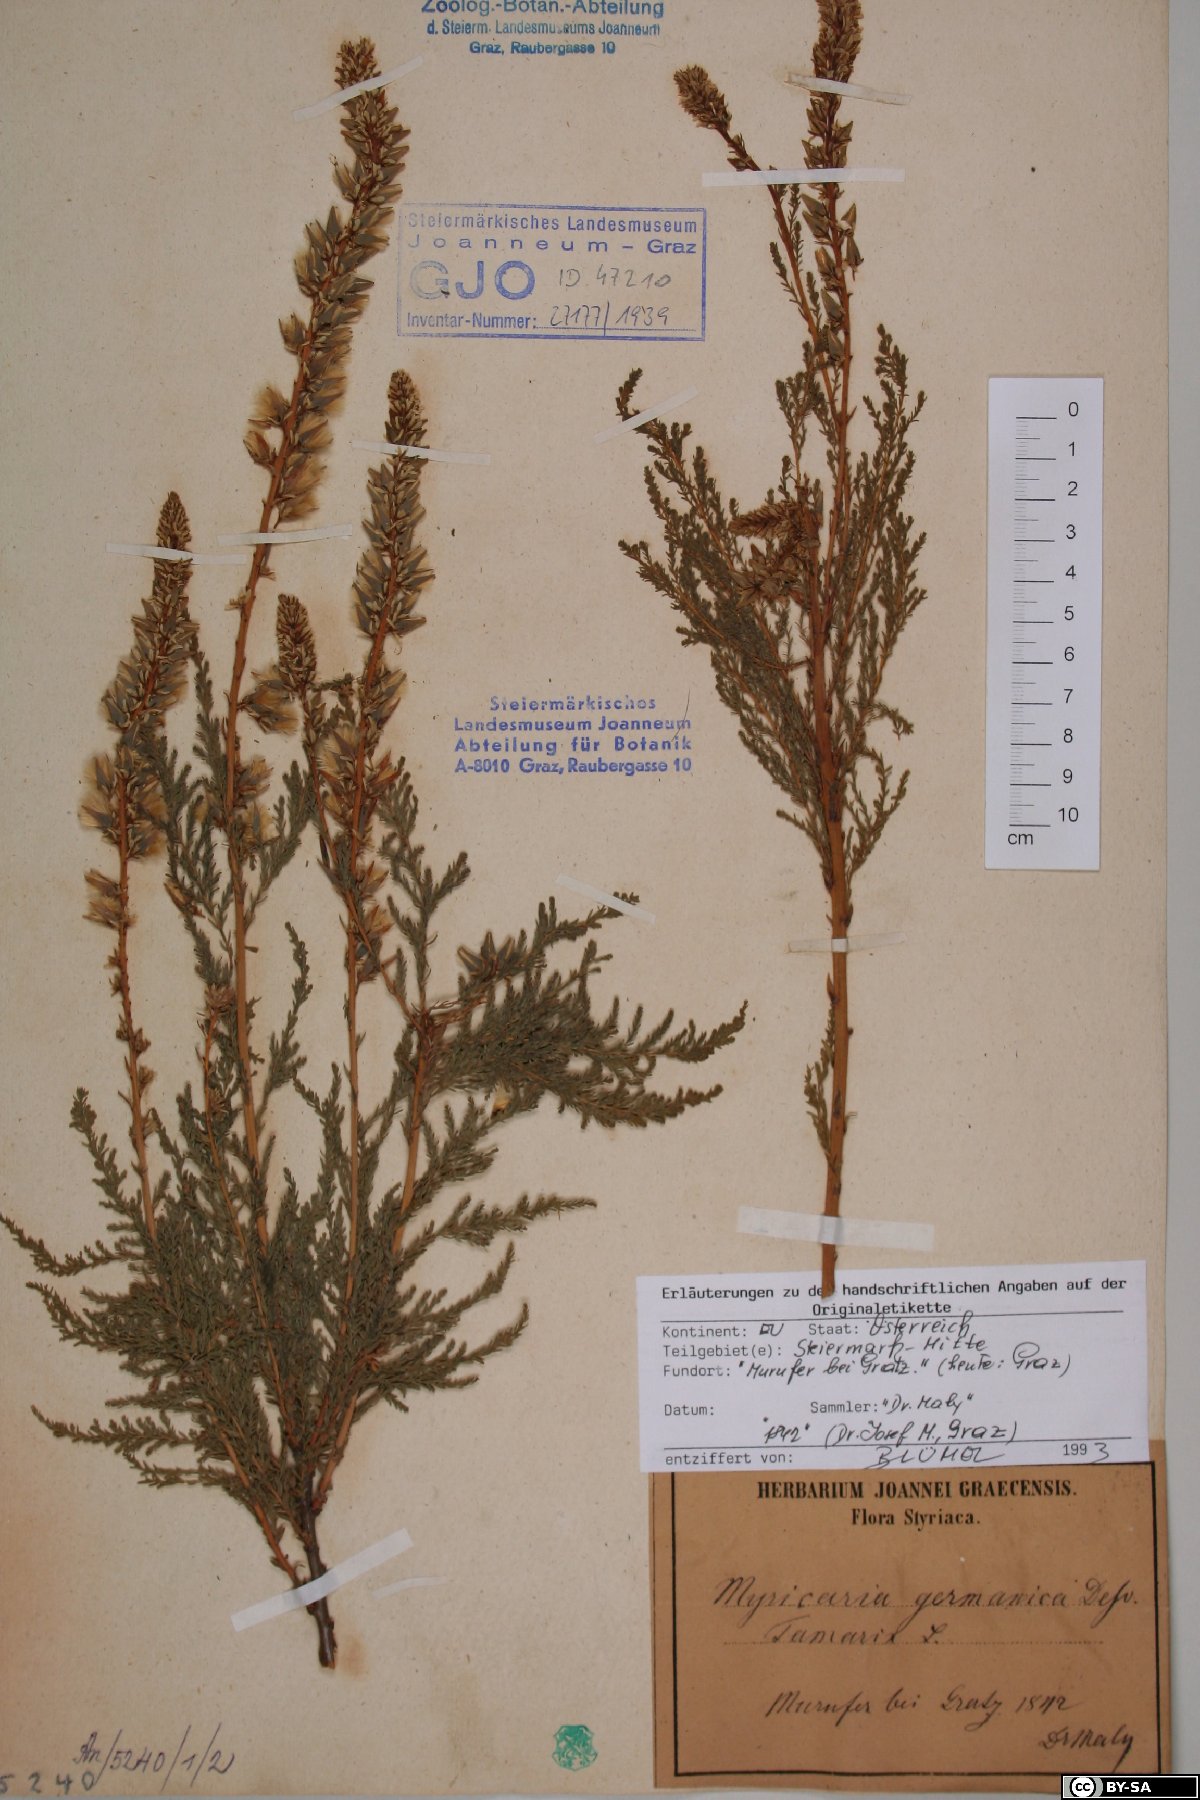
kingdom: Plantae
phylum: Tracheophyta
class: Magnoliopsida
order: Caryophyllales
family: Tamaricaceae
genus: Myricaria
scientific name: Myricaria germanica
